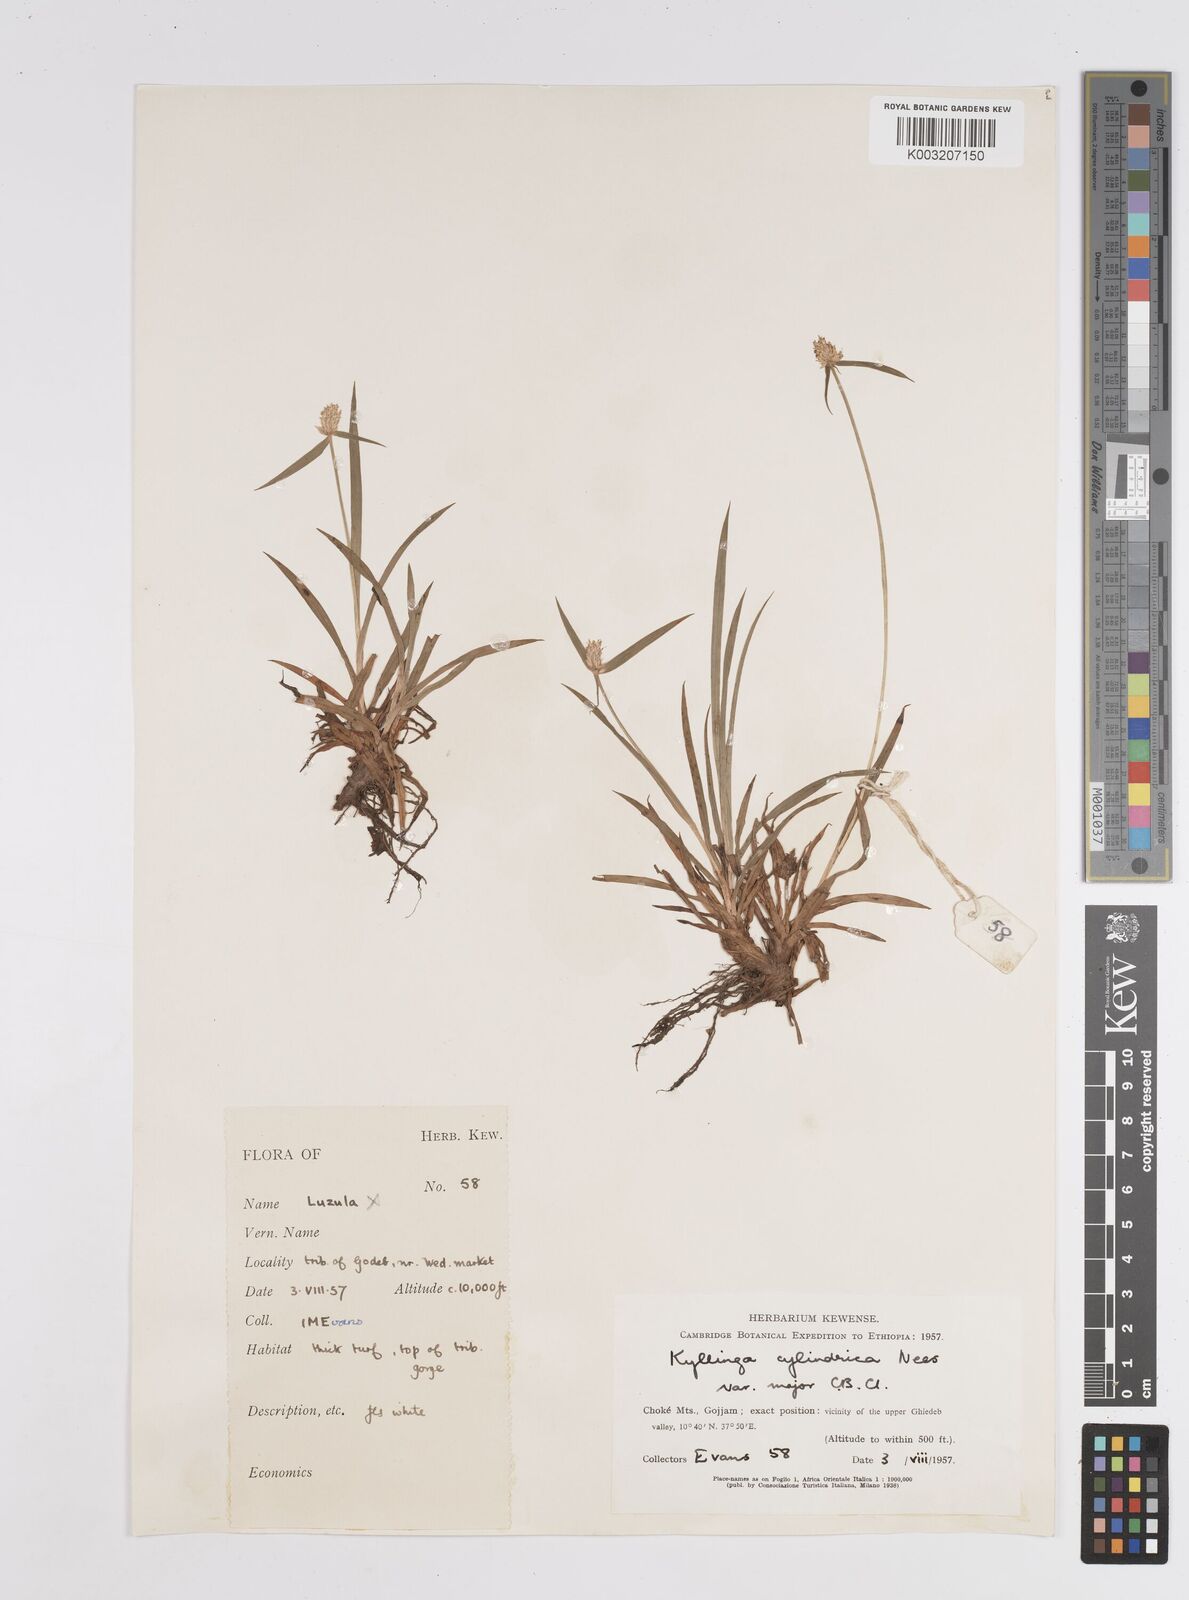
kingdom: Plantae
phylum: Tracheophyta
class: Liliopsida
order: Poales
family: Cyperaceae
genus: Cyperus
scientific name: Cyperus
